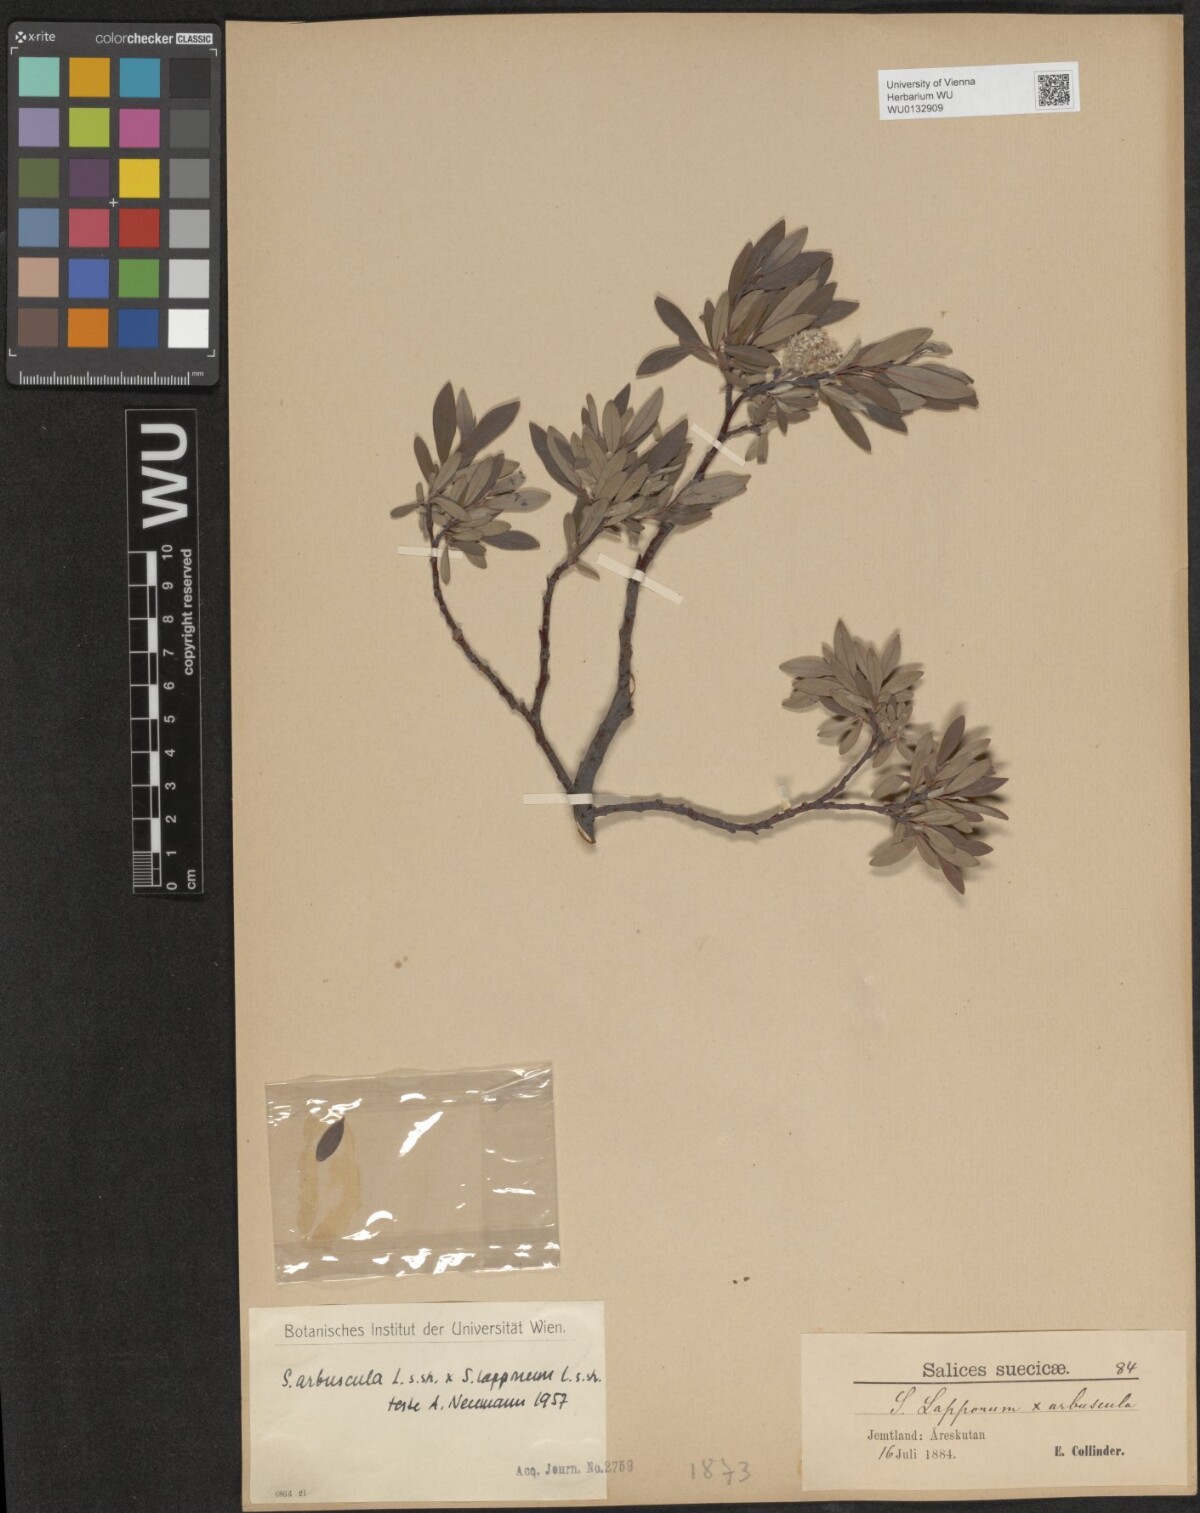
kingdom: Plantae
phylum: Tracheophyta
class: Magnoliopsida
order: Malpighiales
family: Salicaceae
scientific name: Salicaceae
